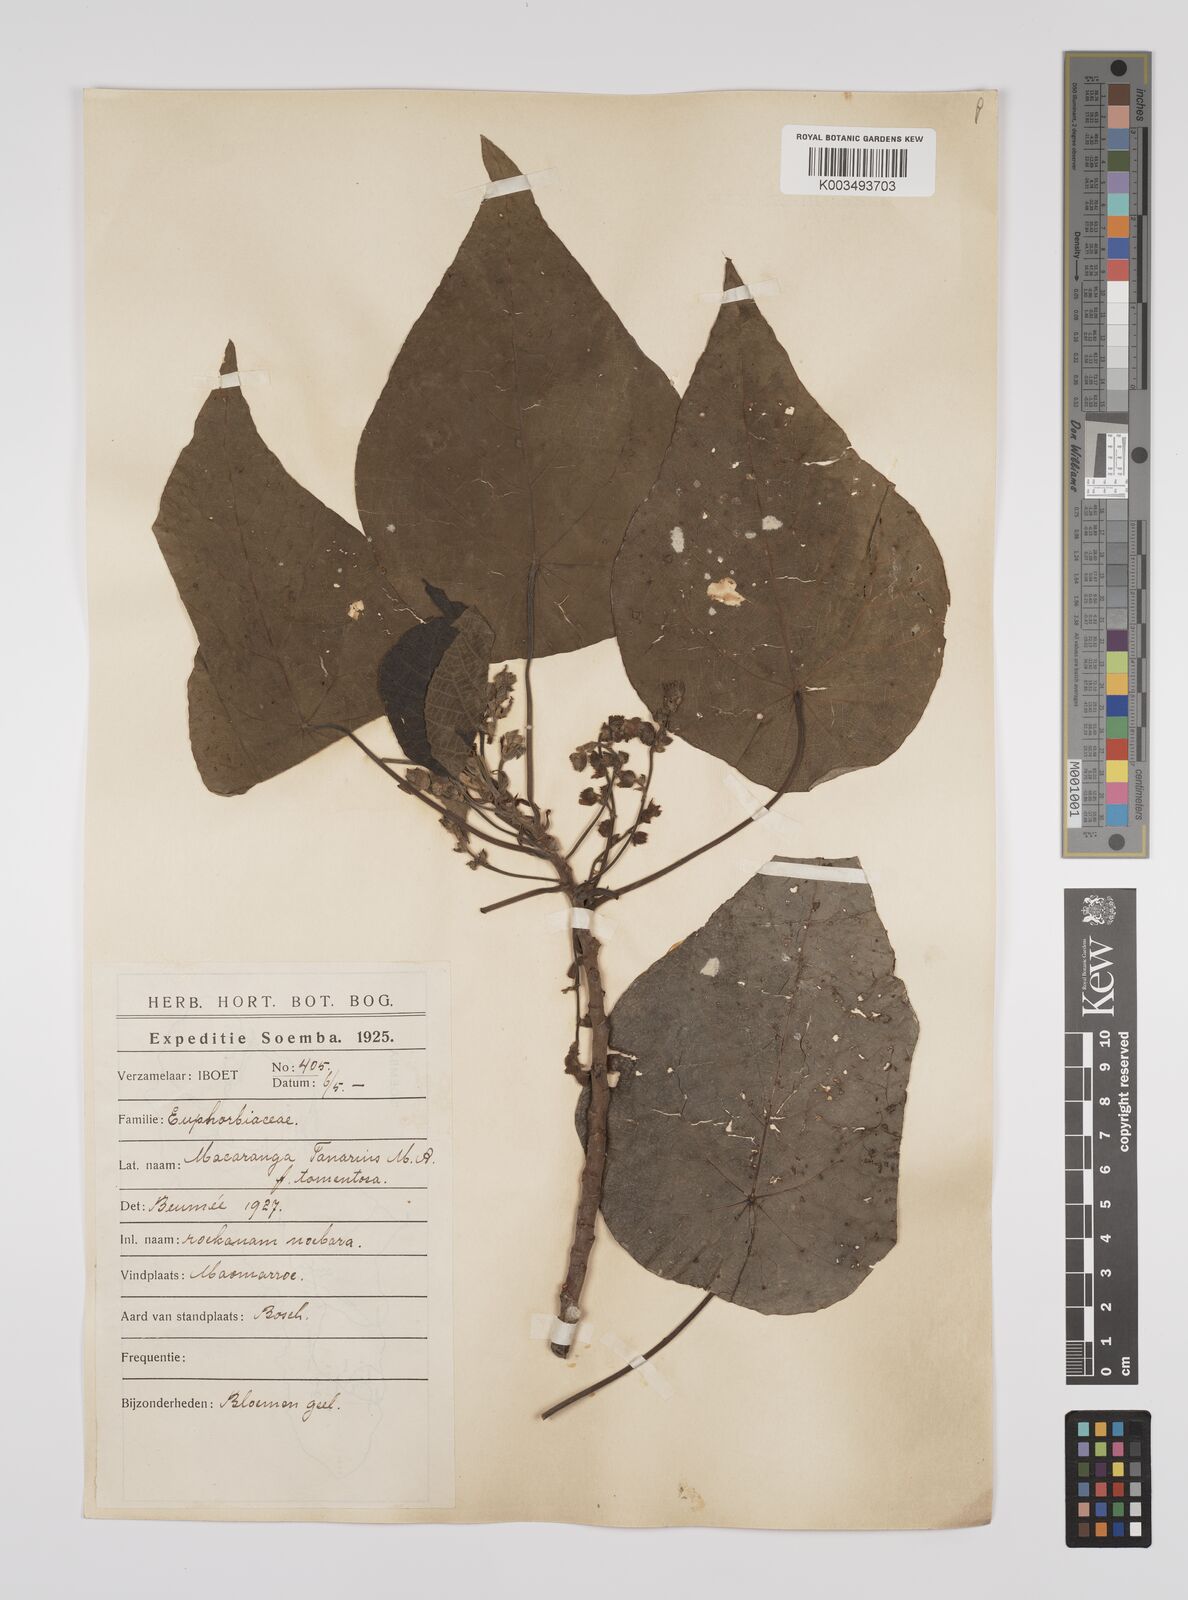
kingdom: Plantae
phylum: Tracheophyta
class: Magnoliopsida
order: Malpighiales
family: Euphorbiaceae
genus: Macaranga
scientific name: Macaranga tanarius
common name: Parasol leaf tree
